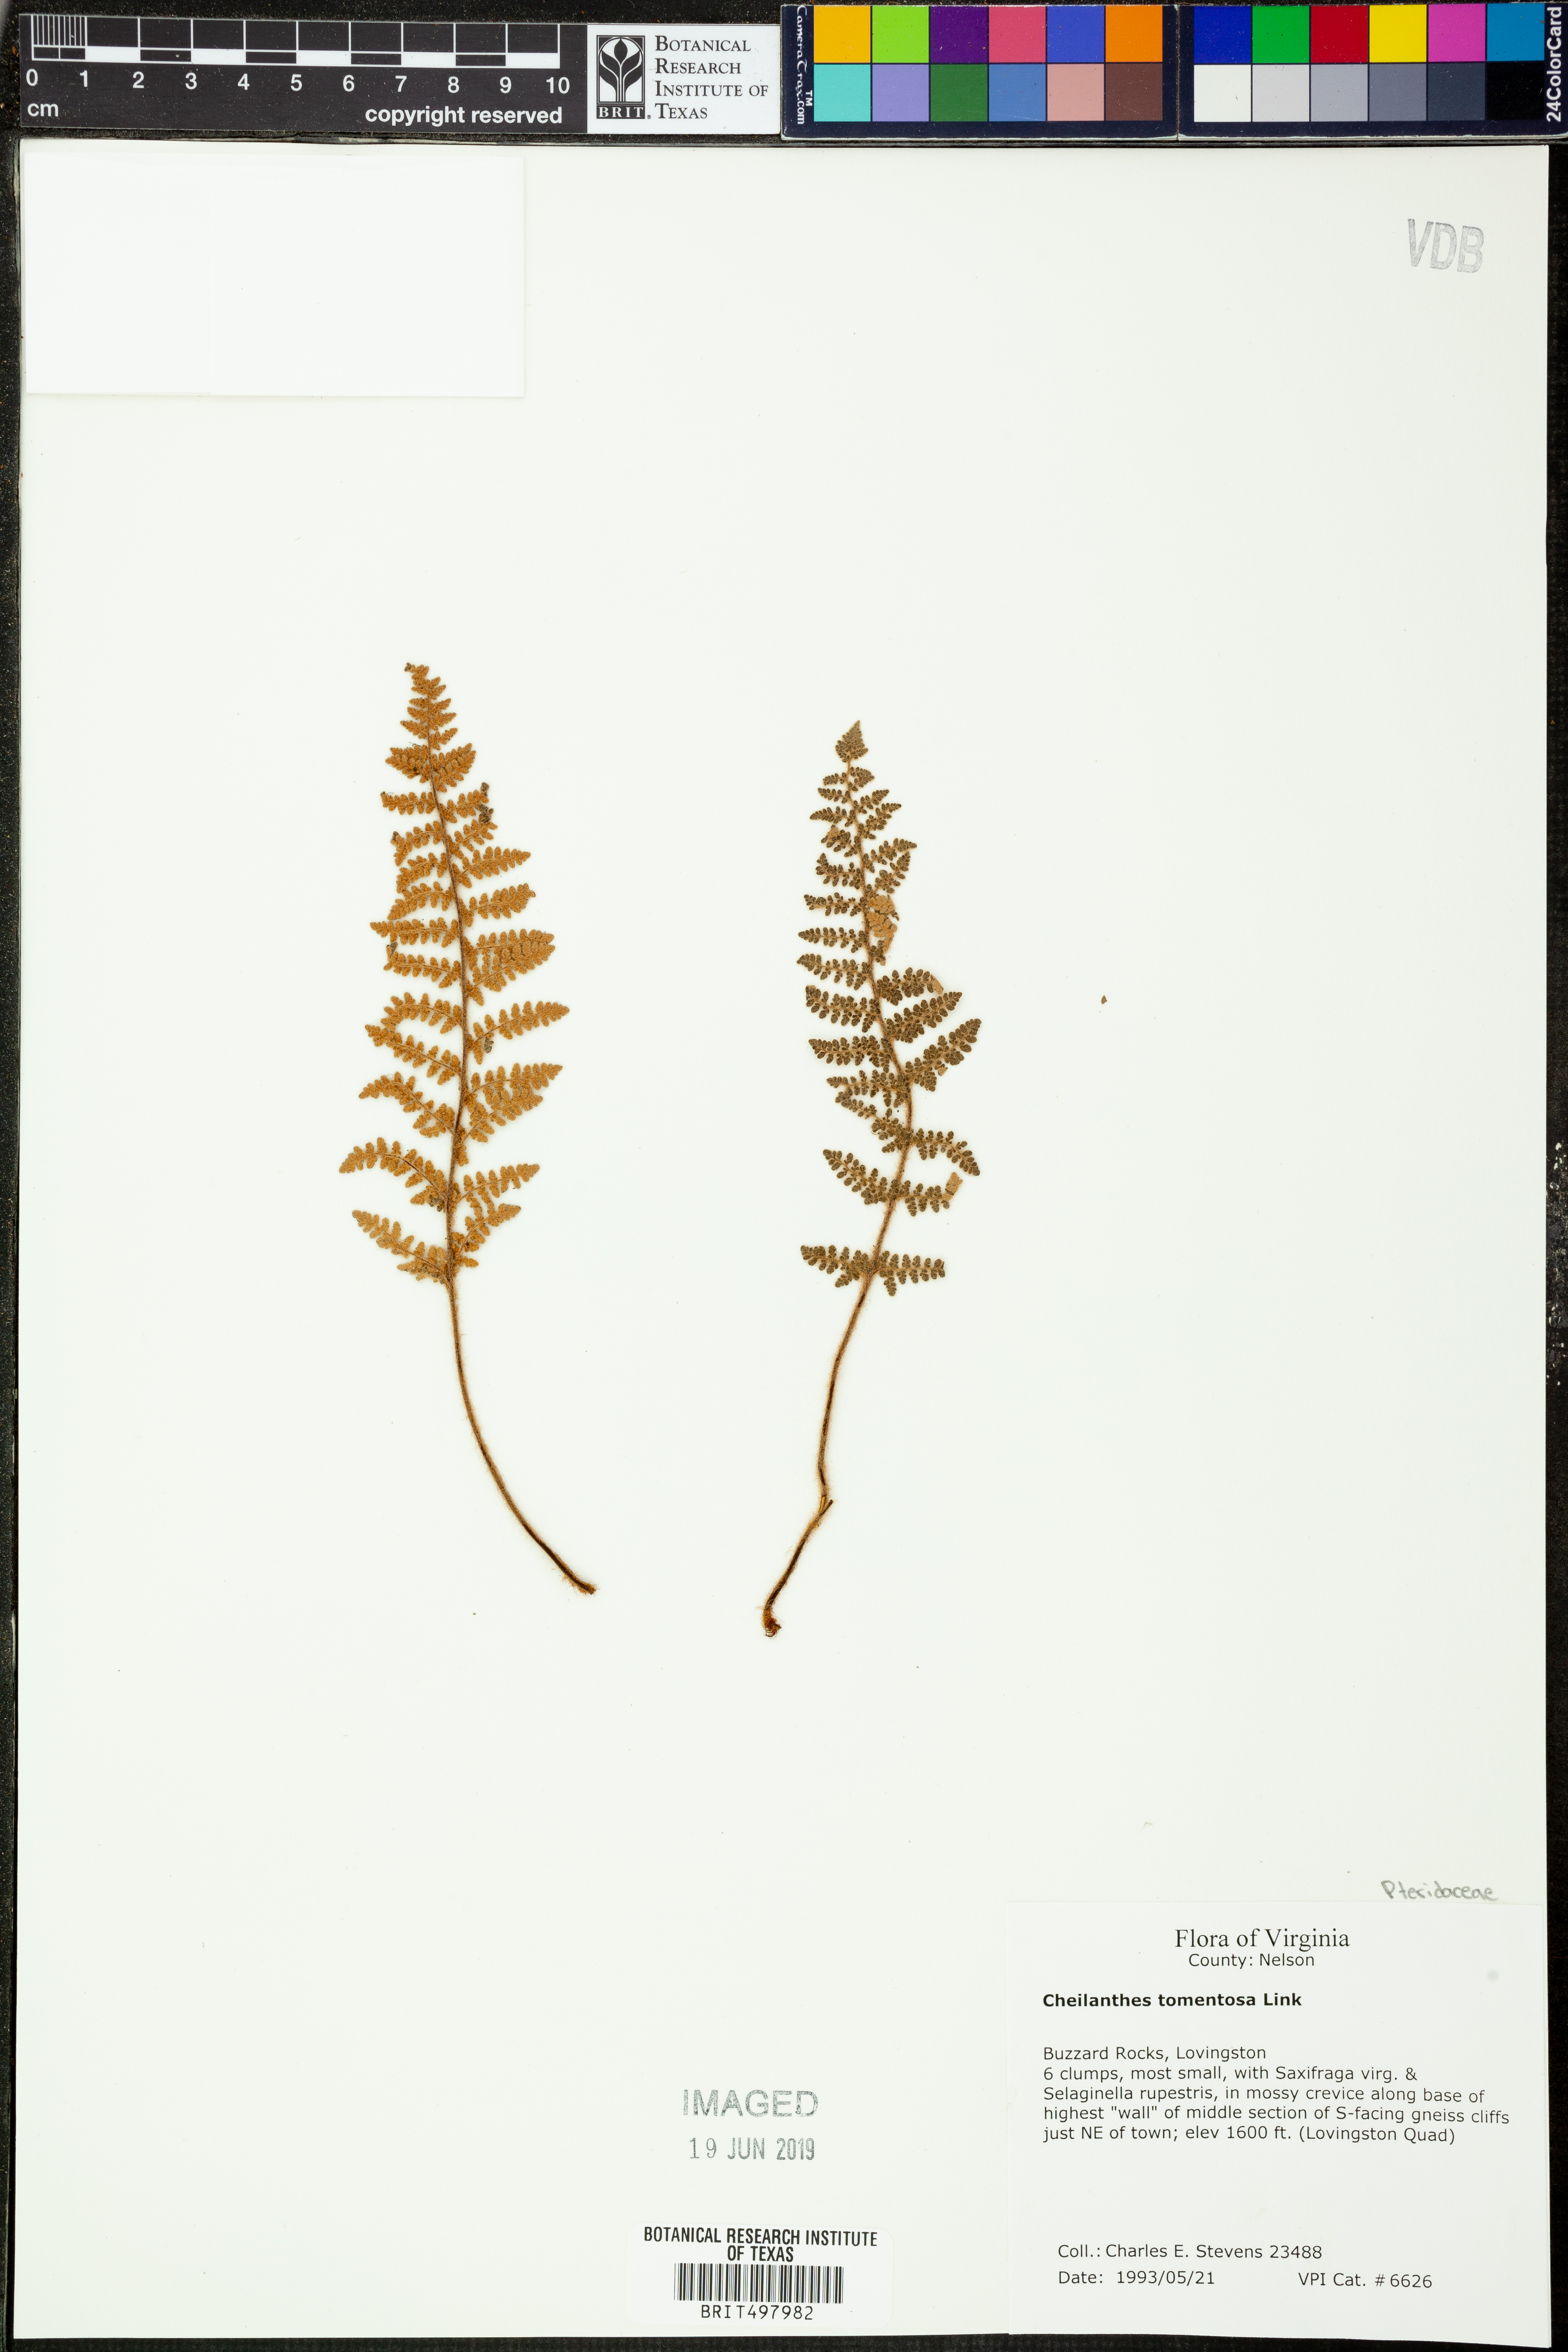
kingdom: Plantae
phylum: Tracheophyta
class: Polypodiopsida
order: Polypodiales
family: Pteridaceae
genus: Myriopteris
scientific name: Myriopteris tomentosa
